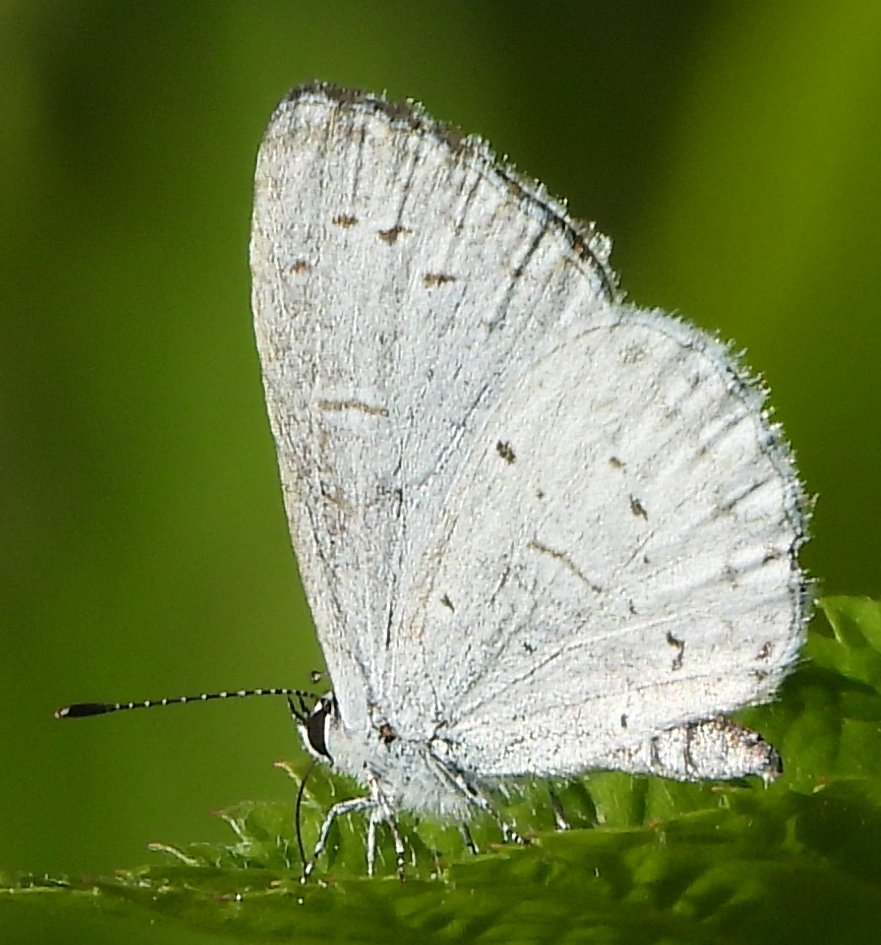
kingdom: Animalia
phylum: Arthropoda
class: Insecta
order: Lepidoptera
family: Lycaenidae
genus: Celastrina
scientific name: Celastrina ladon
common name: Spring Azure
